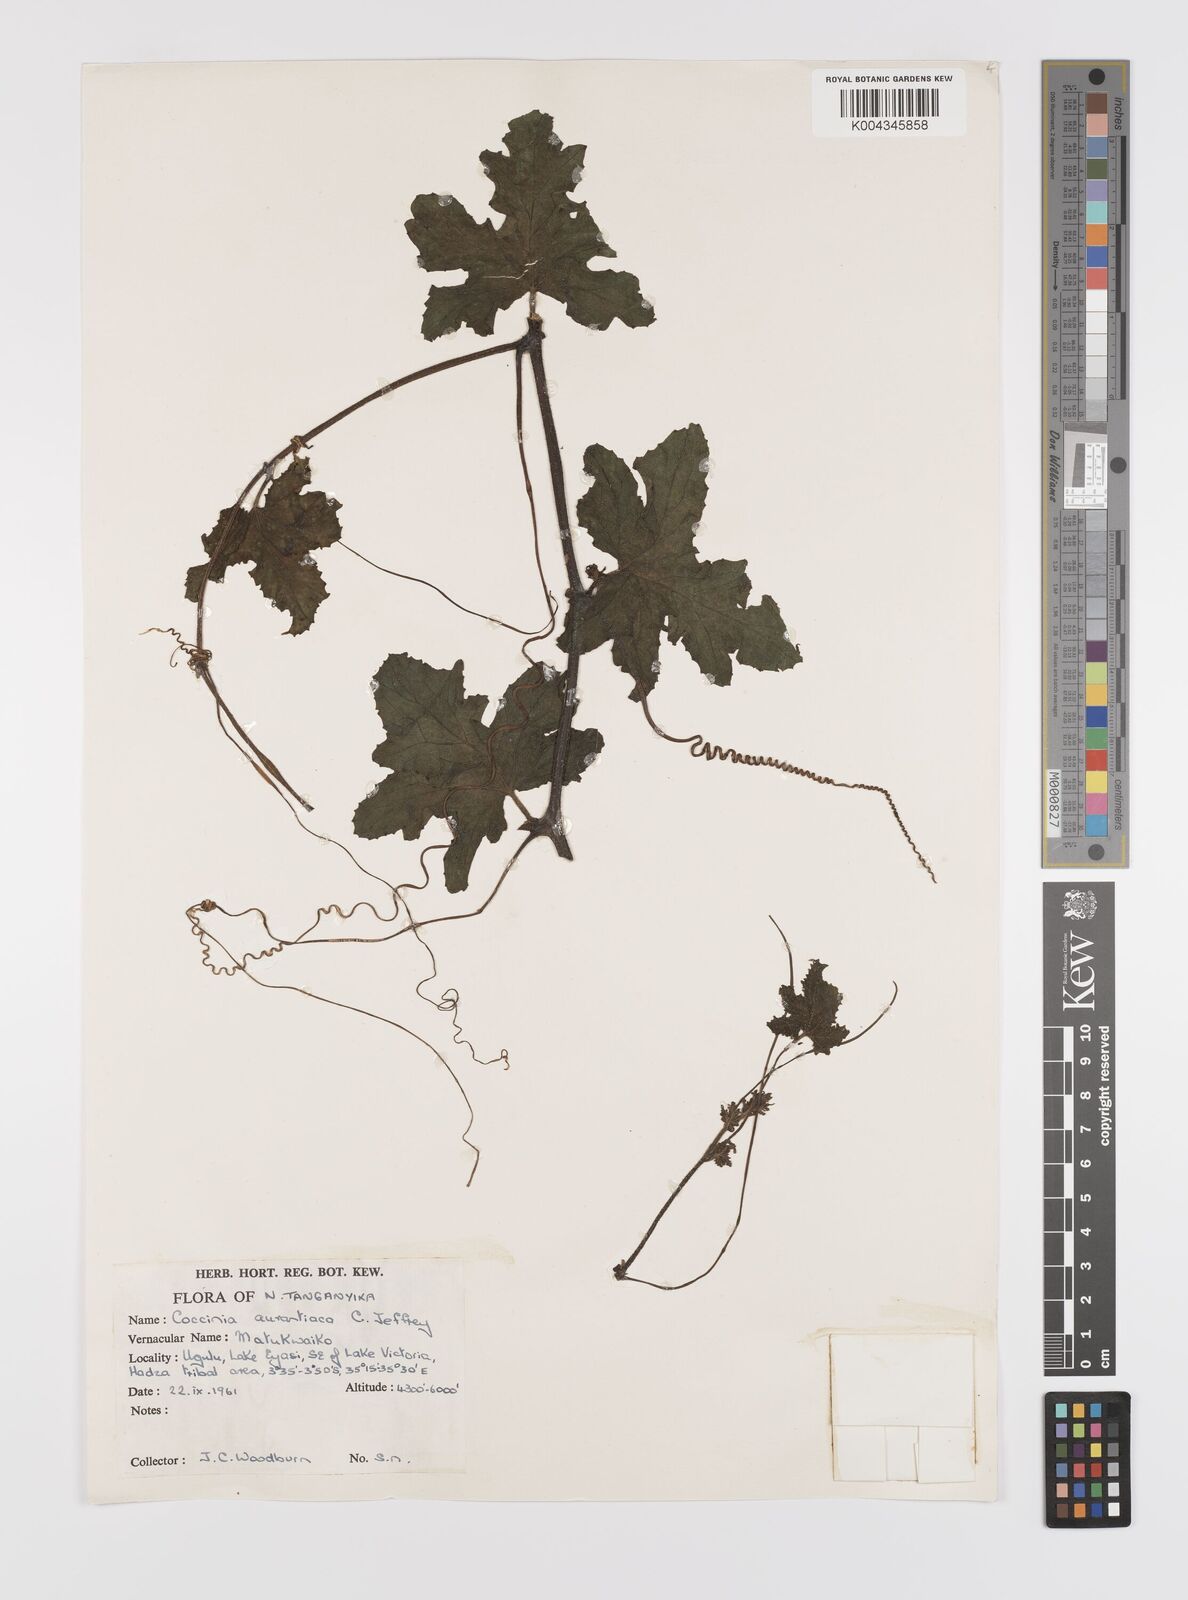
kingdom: Plantae
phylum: Tracheophyta
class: Magnoliopsida
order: Cucurbitales
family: Cucurbitaceae
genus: Coccinia
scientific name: Coccinia adoensis
